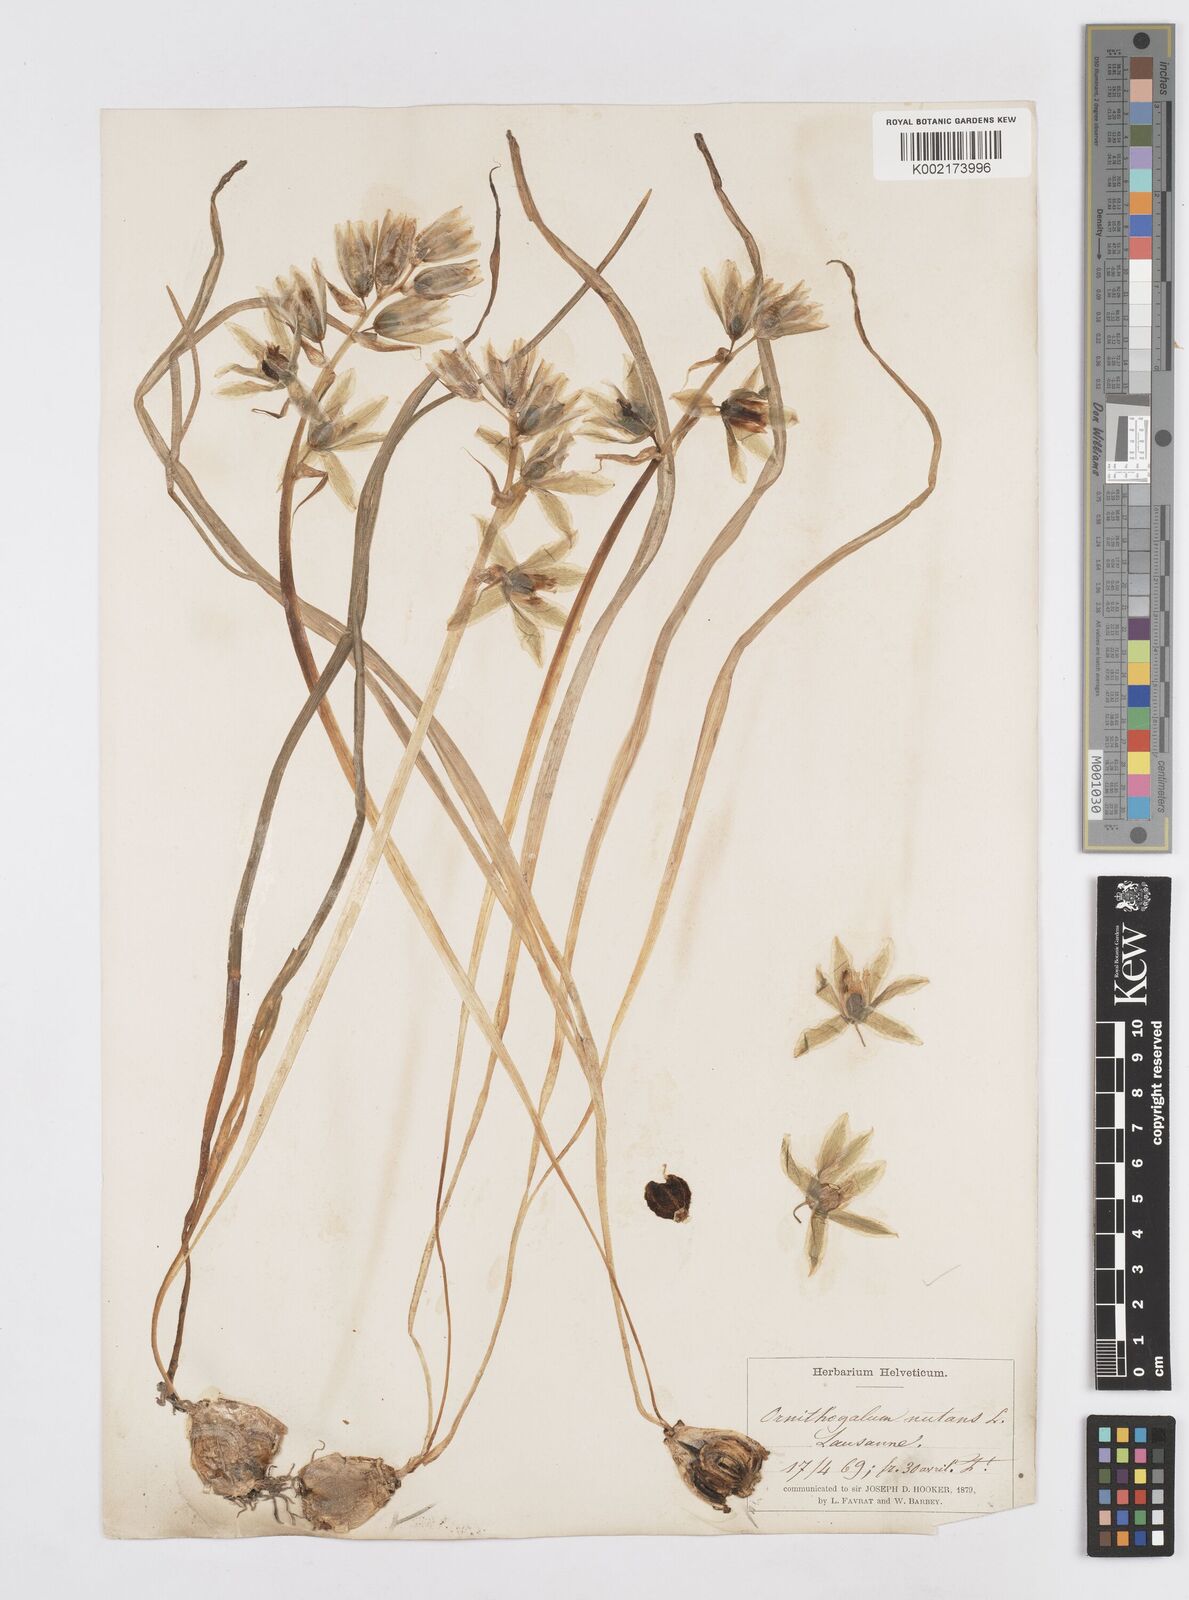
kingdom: Plantae
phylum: Tracheophyta
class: Liliopsida
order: Asparagales
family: Asparagaceae
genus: Ornithogalum
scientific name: Ornithogalum nutans
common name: Drooping star-of-bethlehem
